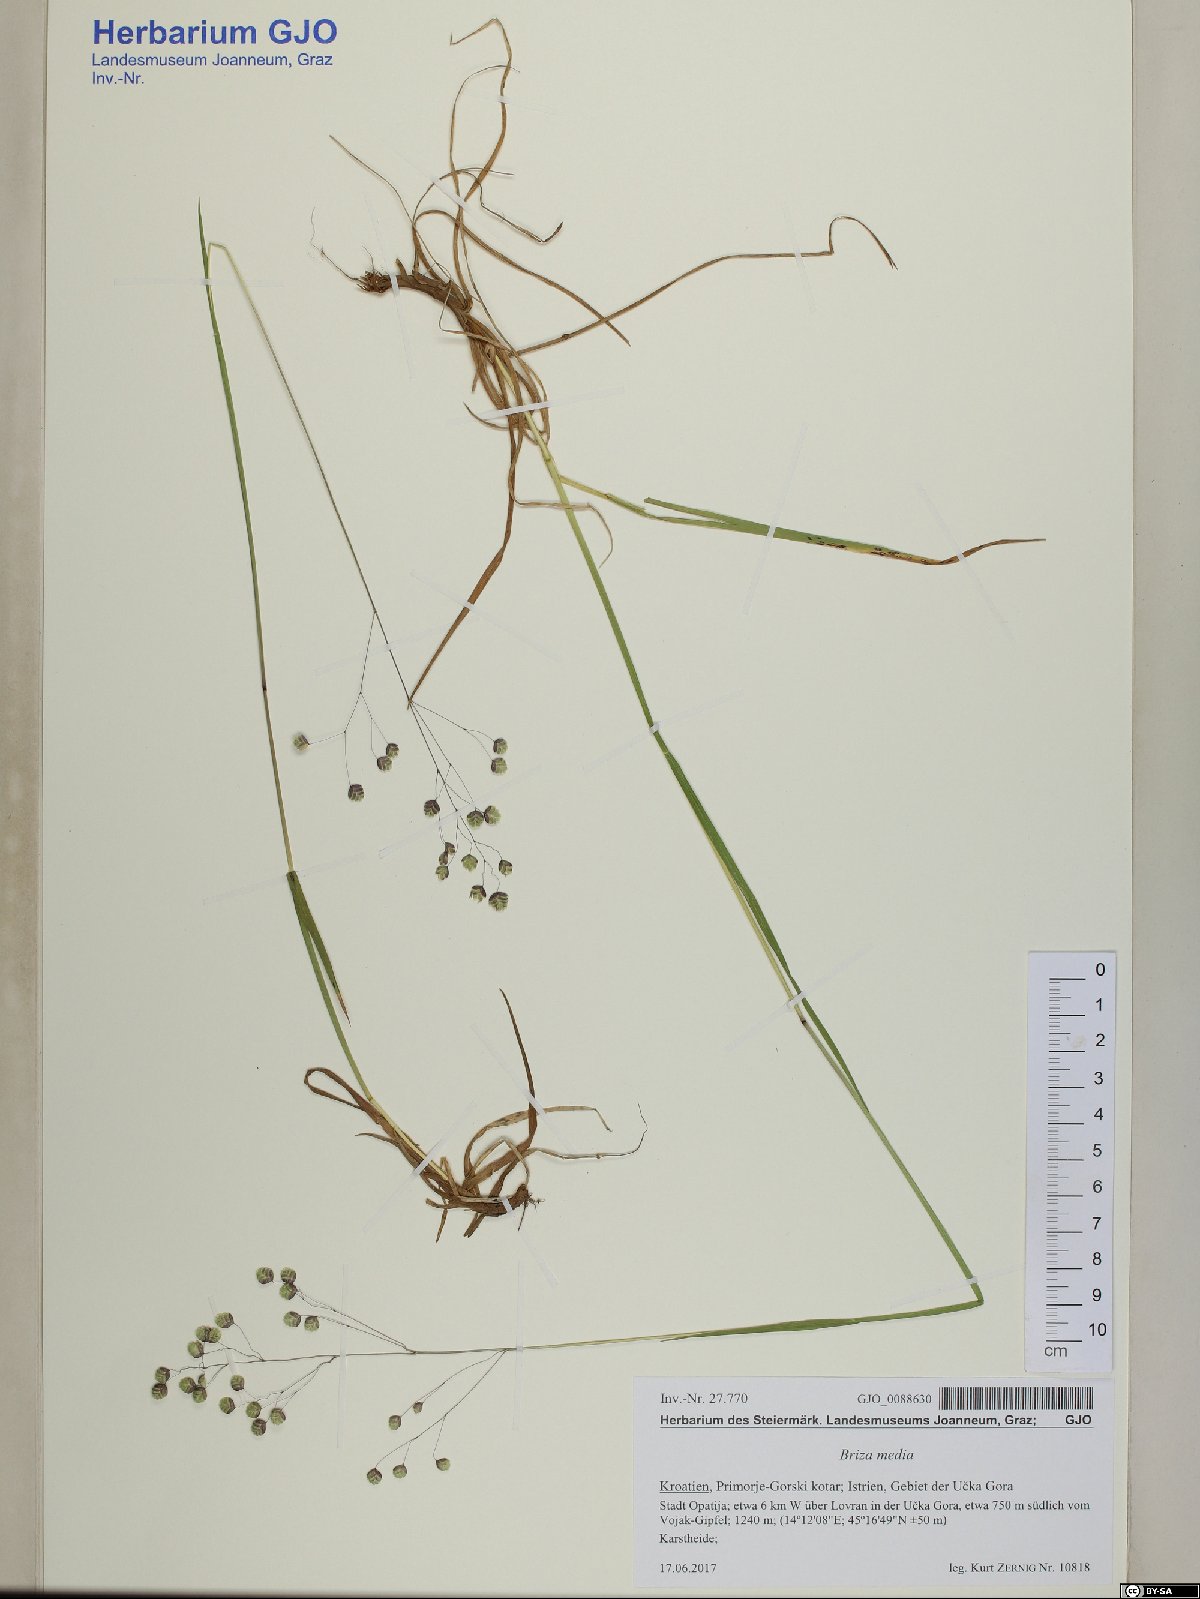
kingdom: Plantae
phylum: Tracheophyta
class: Liliopsida
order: Poales
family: Poaceae
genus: Briza
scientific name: Briza media
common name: Quaking grass
